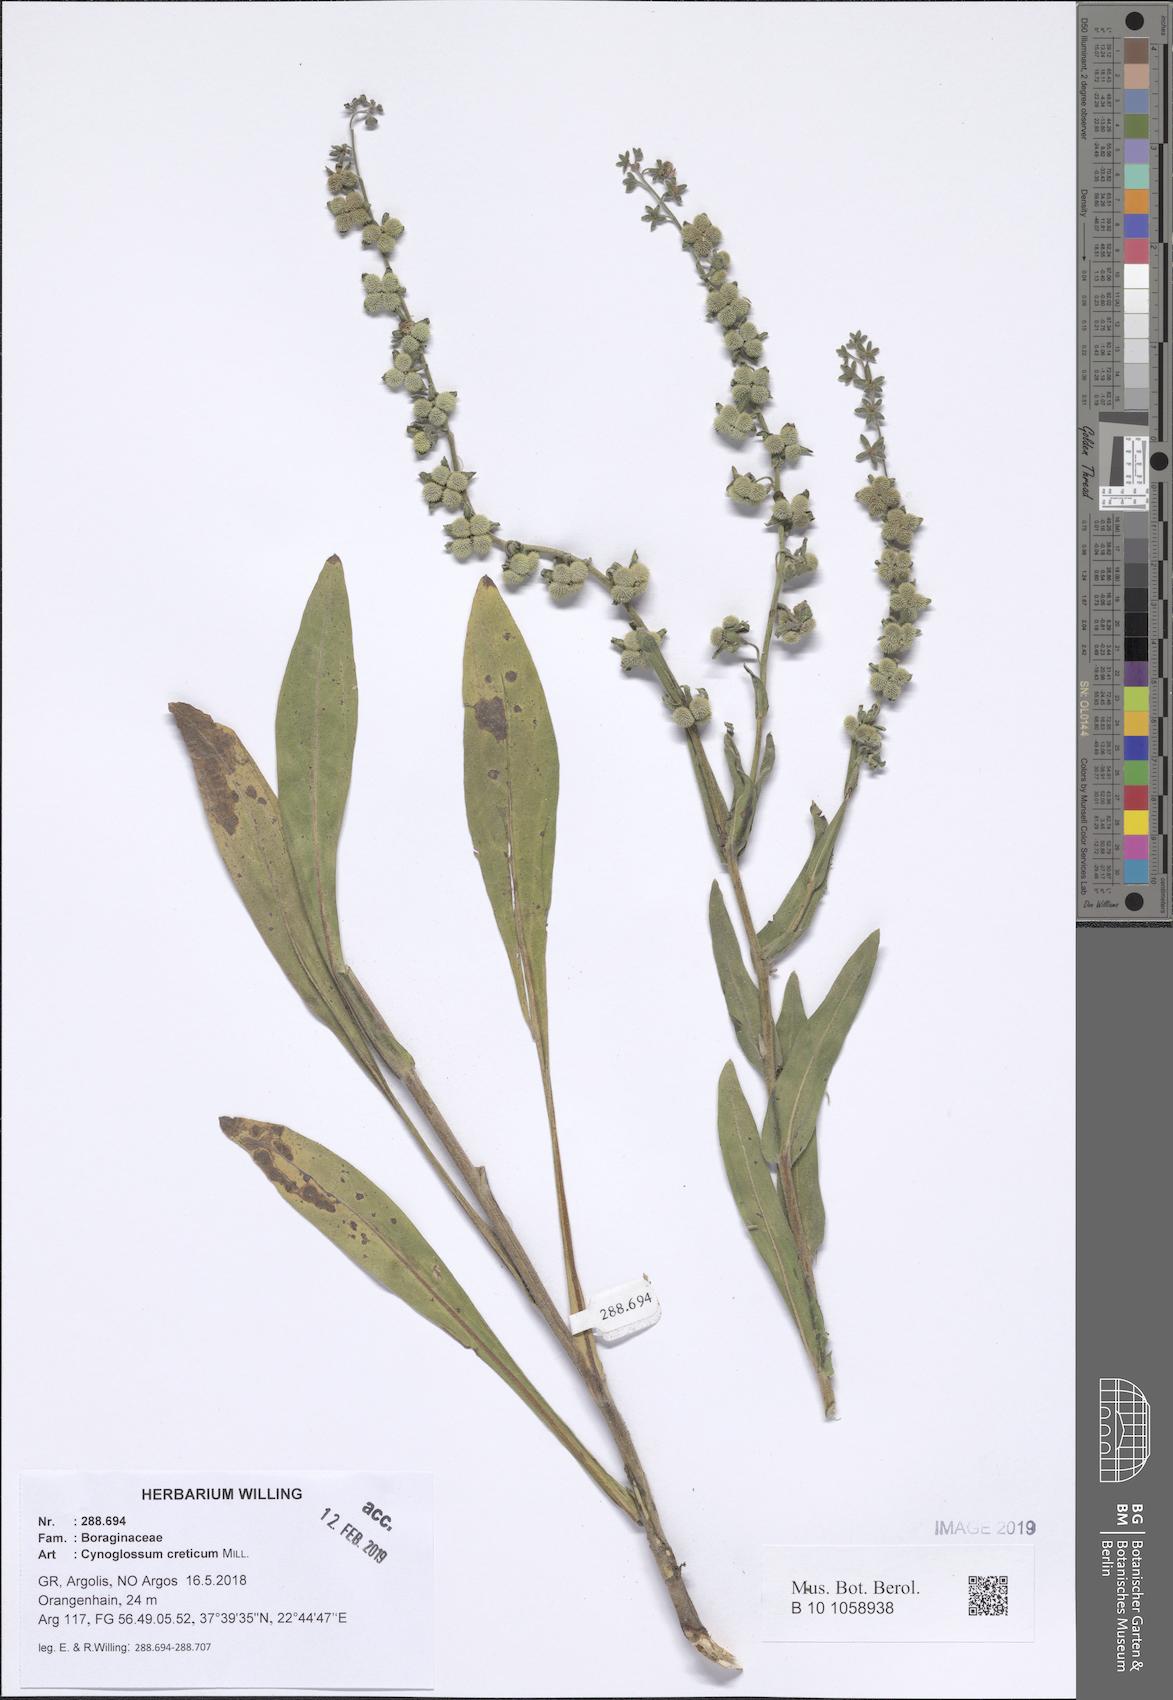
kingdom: Plantae
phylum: Tracheophyta
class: Magnoliopsida
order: Boraginales
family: Boraginaceae
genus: Cynoglossum
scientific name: Cynoglossum creticum
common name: Blue hound's tongue
